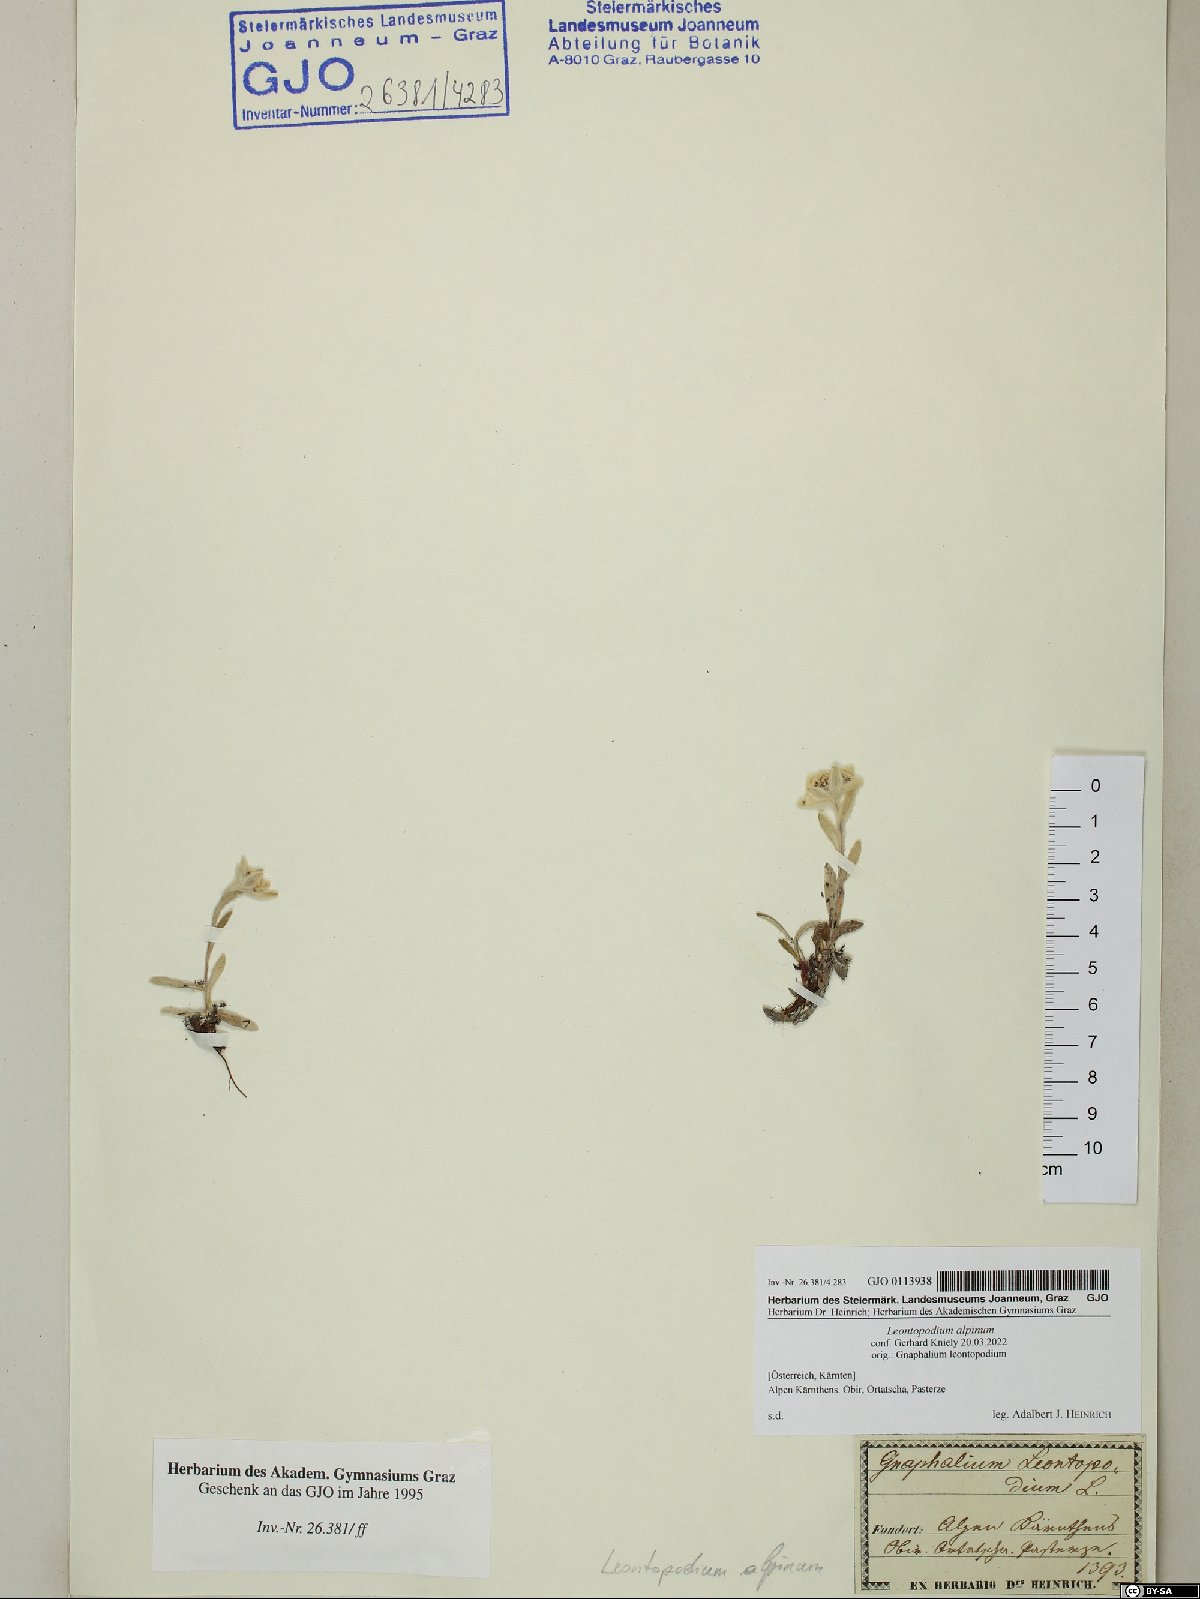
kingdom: Plantae
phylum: Tracheophyta
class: Magnoliopsida
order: Asterales
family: Asteraceae
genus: Leontopodium
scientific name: Leontopodium nivale
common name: Edelweiss
